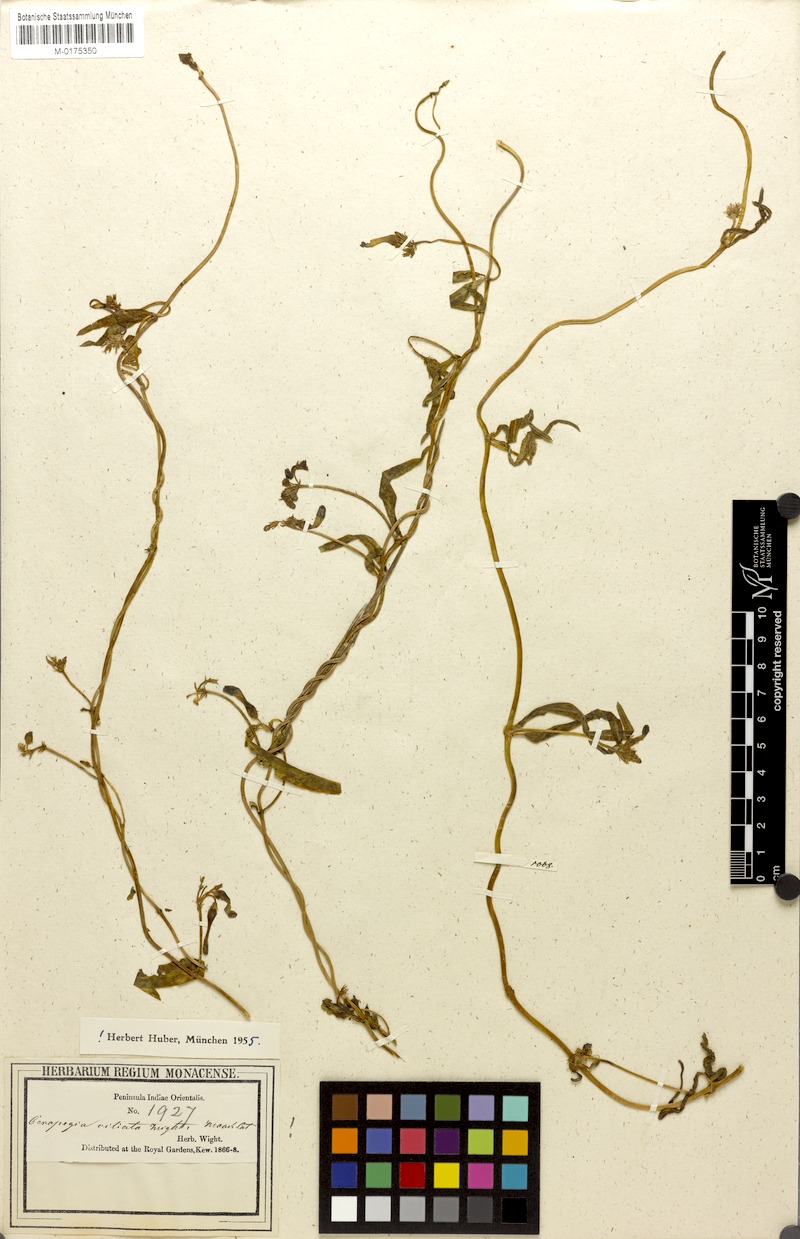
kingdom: Plantae
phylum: Tracheophyta
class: Magnoliopsida
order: Gentianales
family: Apocynaceae
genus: Ceropegia
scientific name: Ceropegia ciliata
